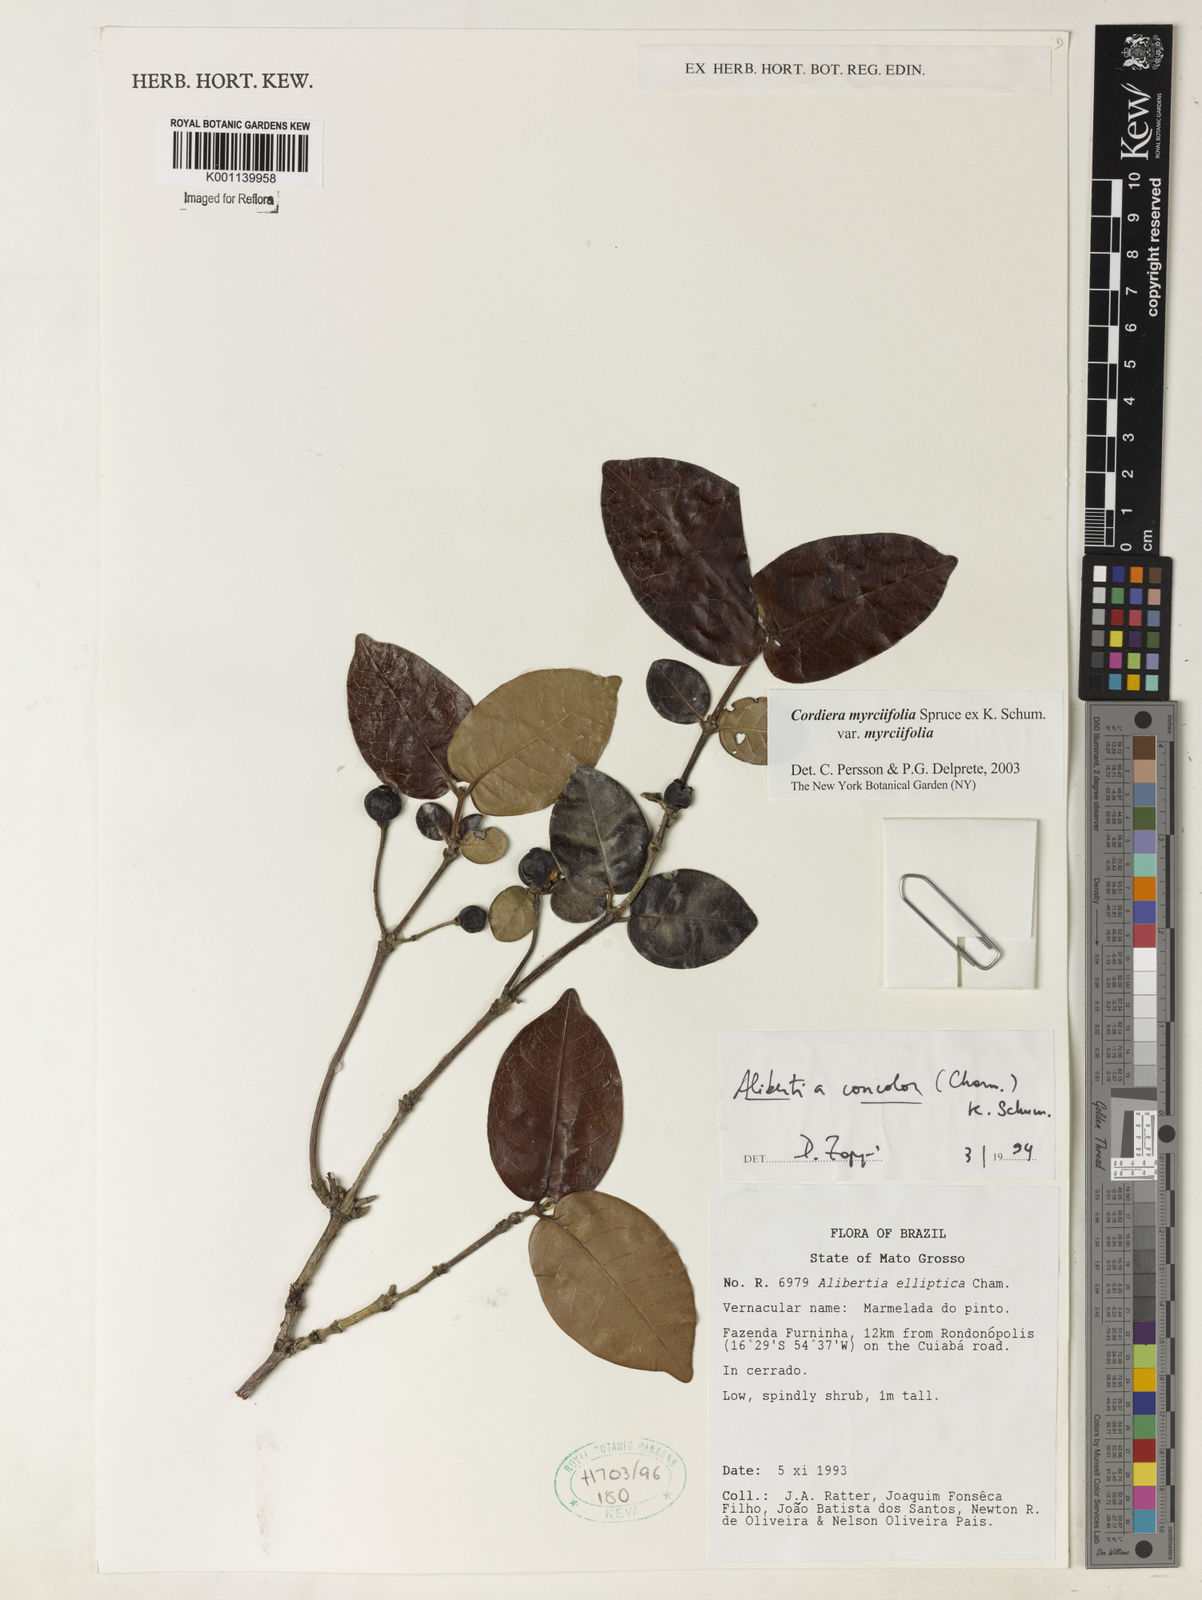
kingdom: Plantae
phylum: Tracheophyta
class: Magnoliopsida
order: Gentianales
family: Rubiaceae
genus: Cordiera
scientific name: Cordiera concolor
